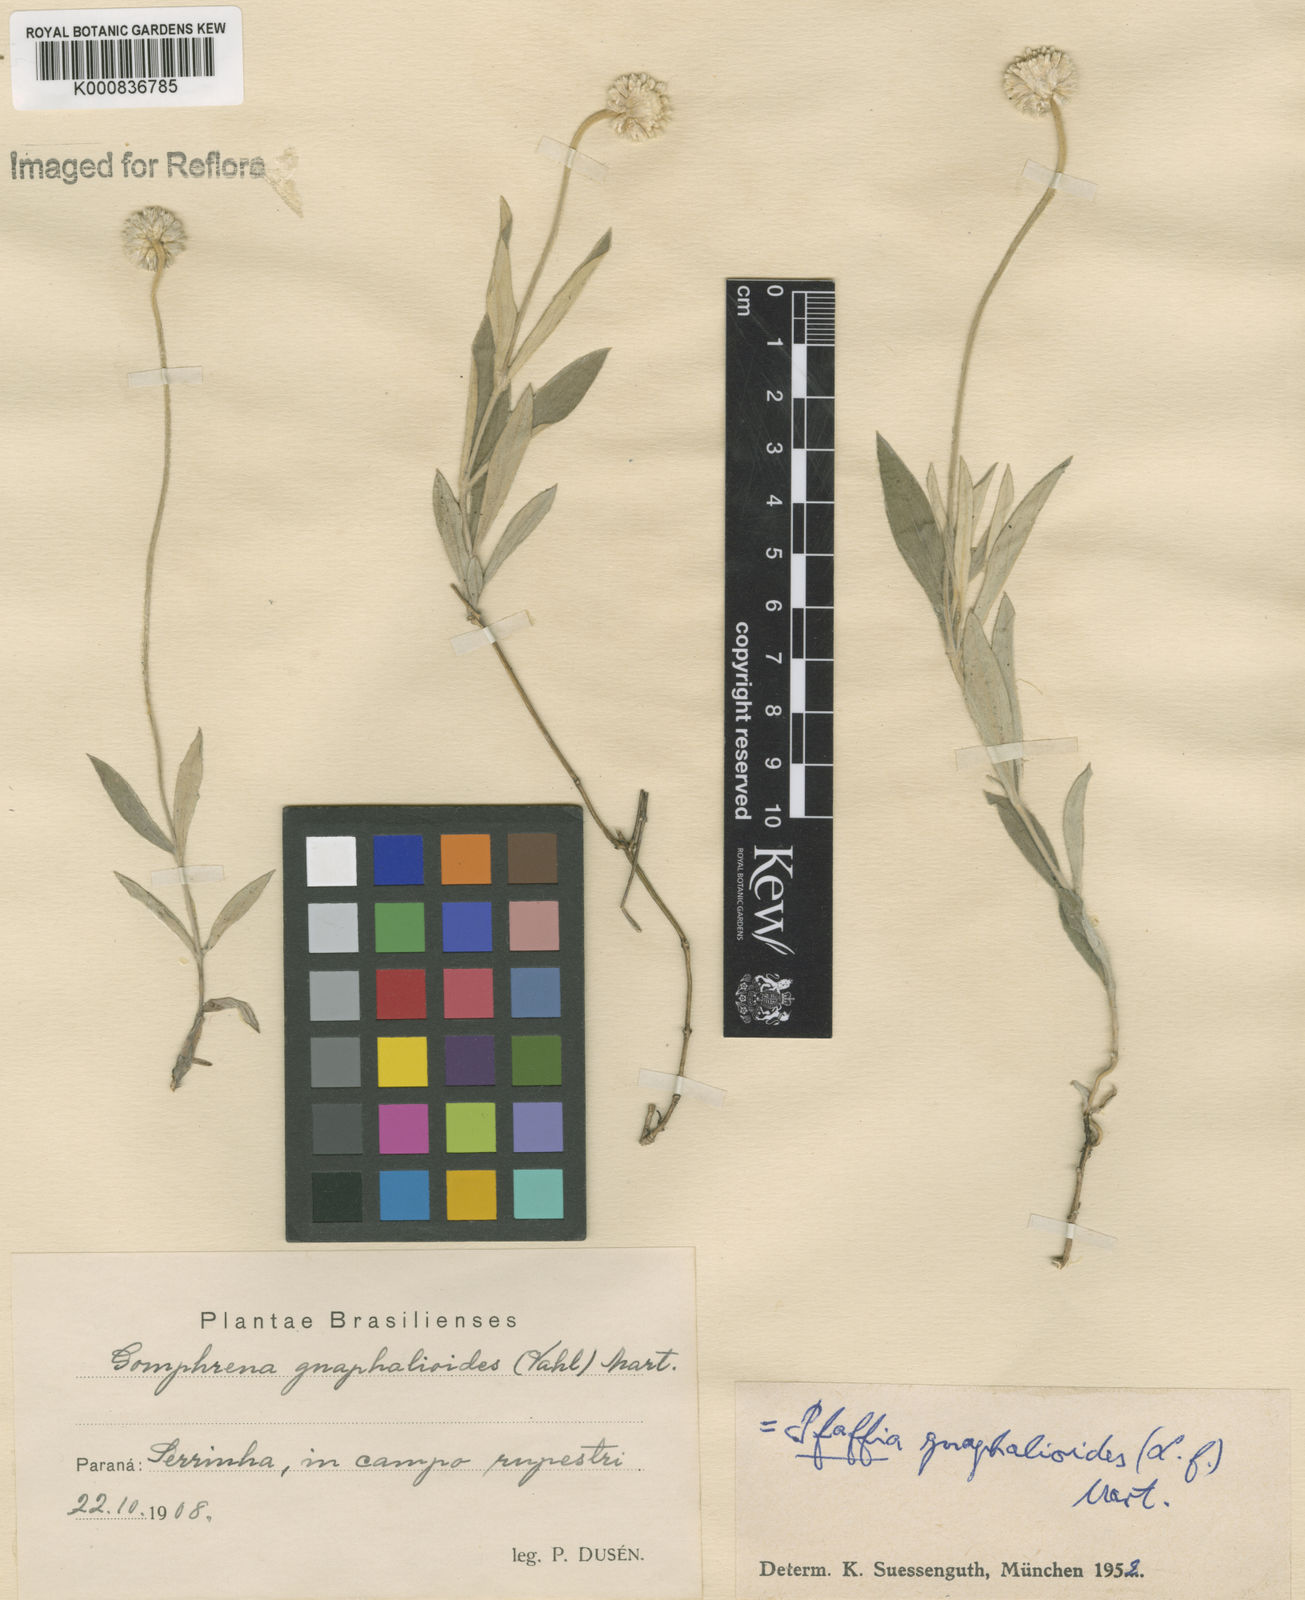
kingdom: Plantae
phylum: Tracheophyta
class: Magnoliopsida
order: Caryophyllales
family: Amaranthaceae
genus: Pfaffia
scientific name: Pfaffia
